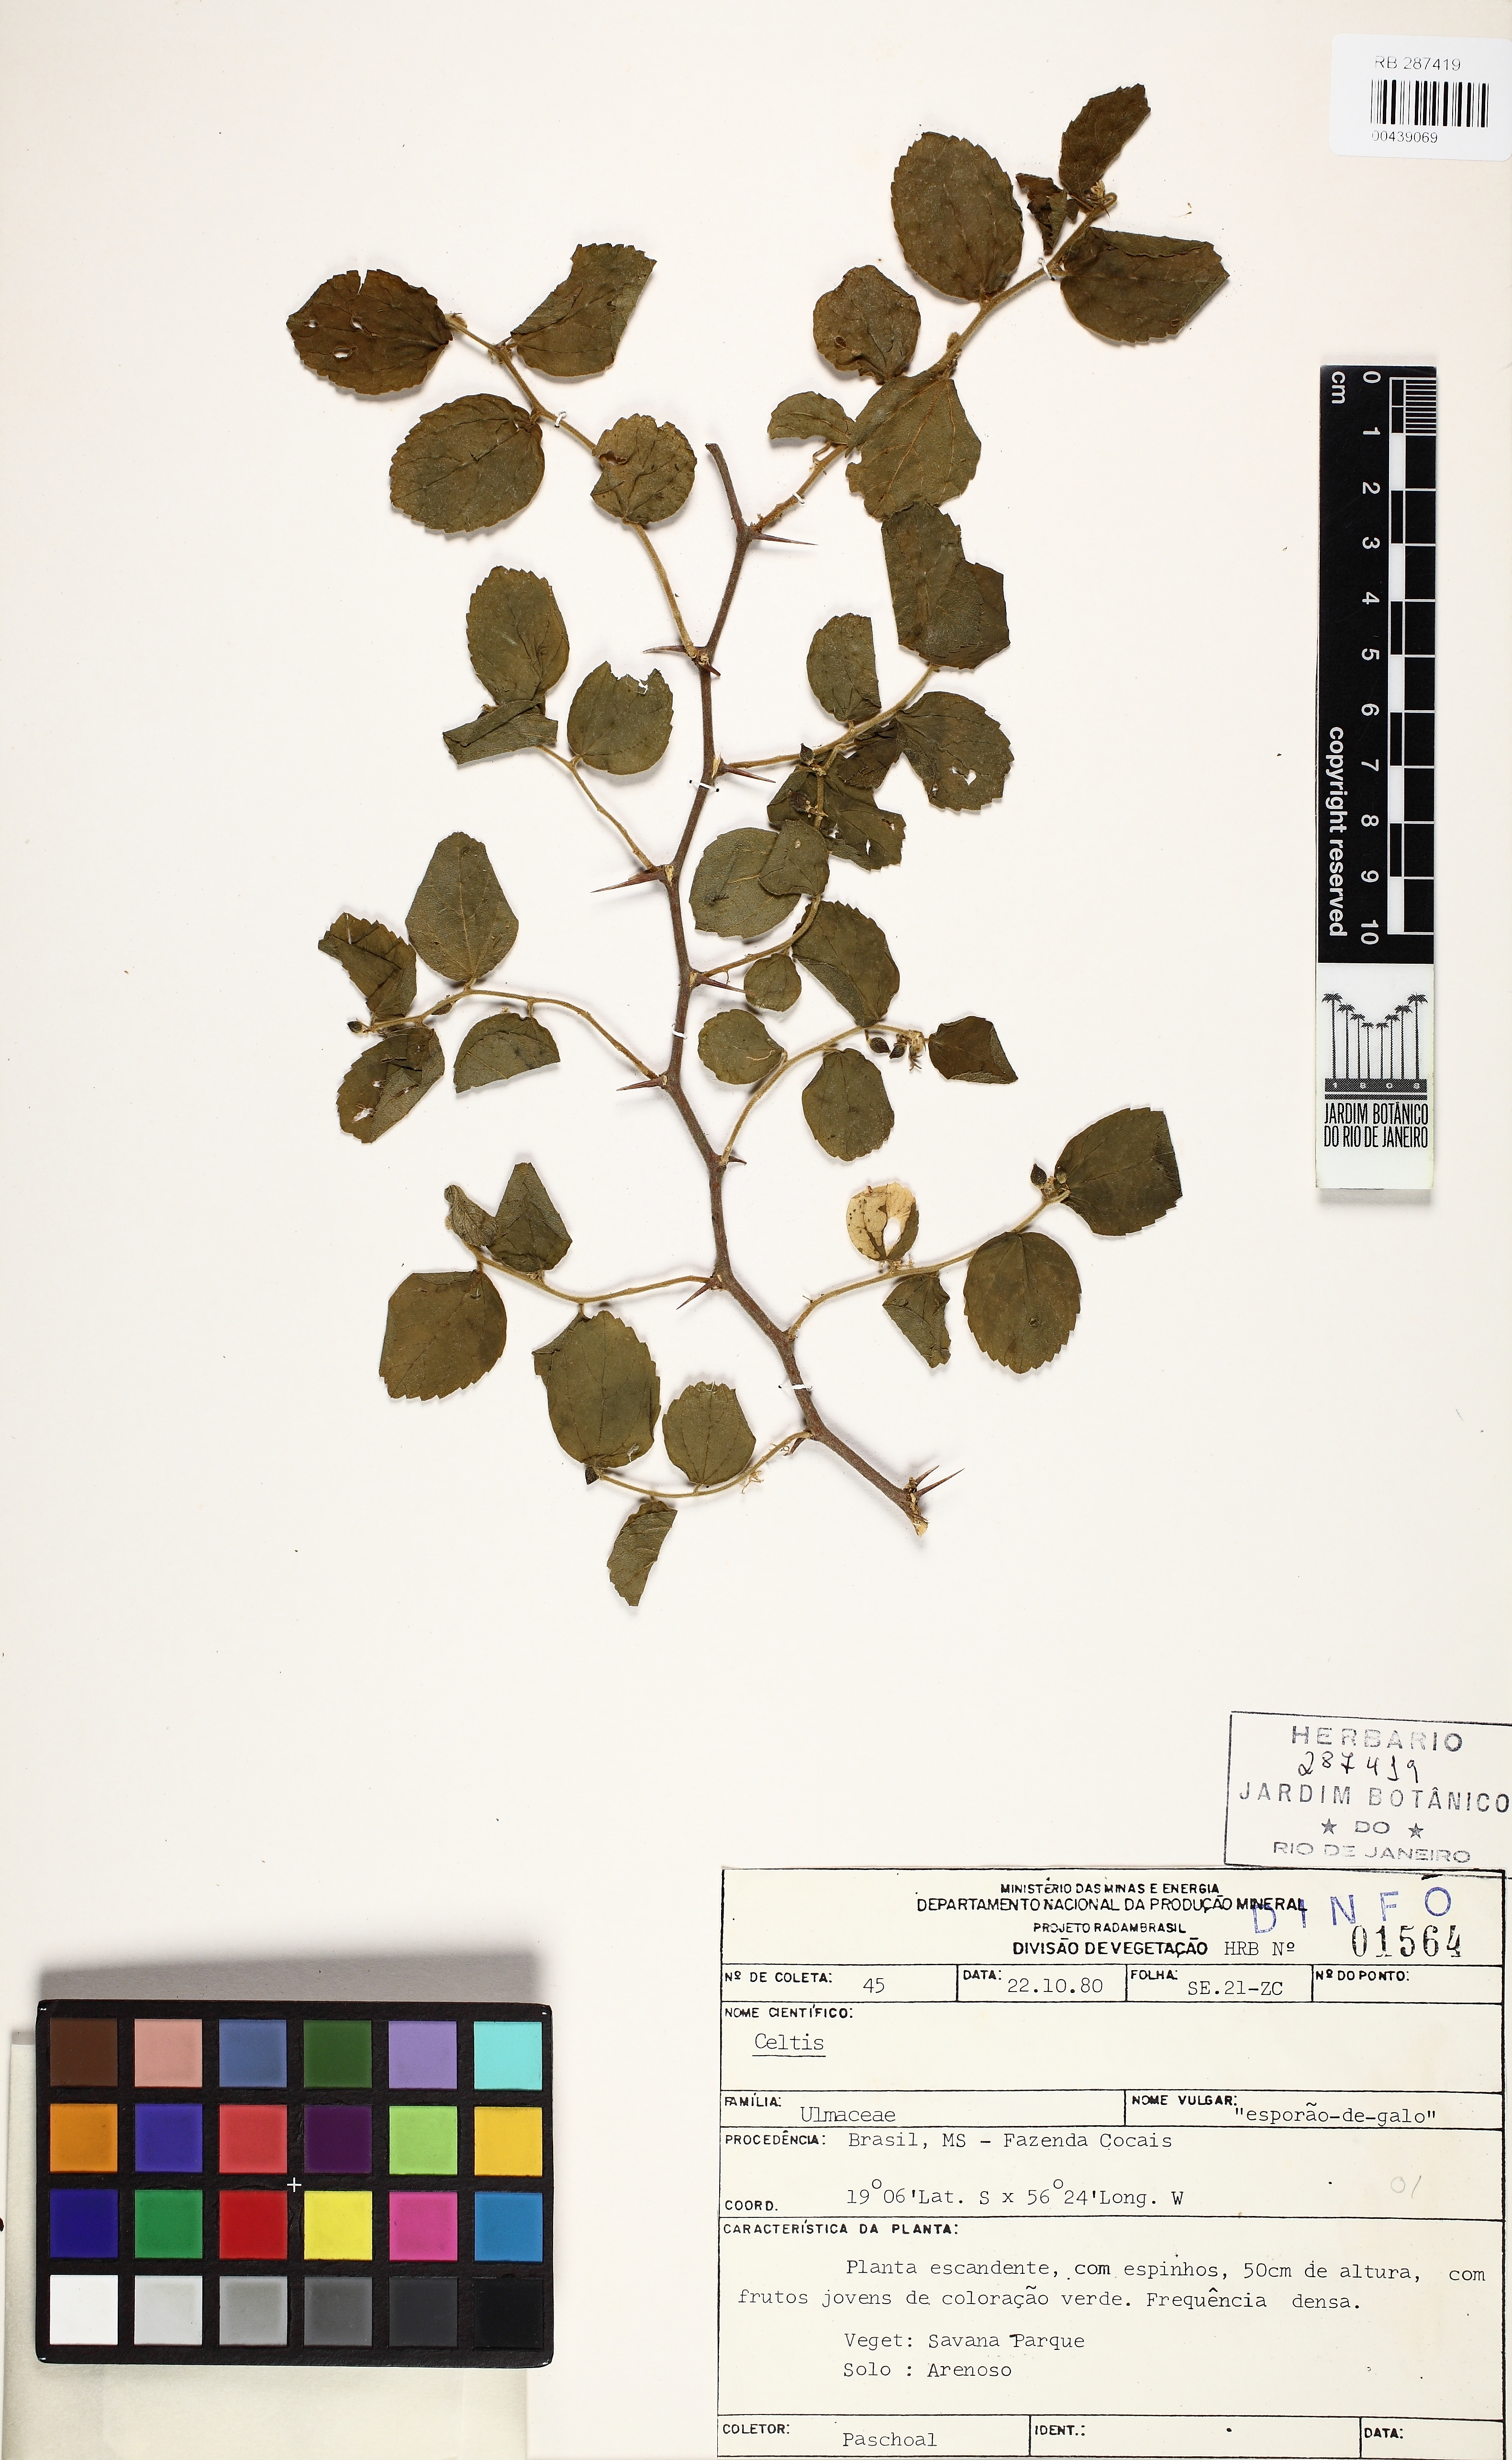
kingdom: Plantae
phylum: Tracheophyta
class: Magnoliopsida
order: Rosales
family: Cannabaceae
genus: Celtis
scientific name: Celtis chicape
